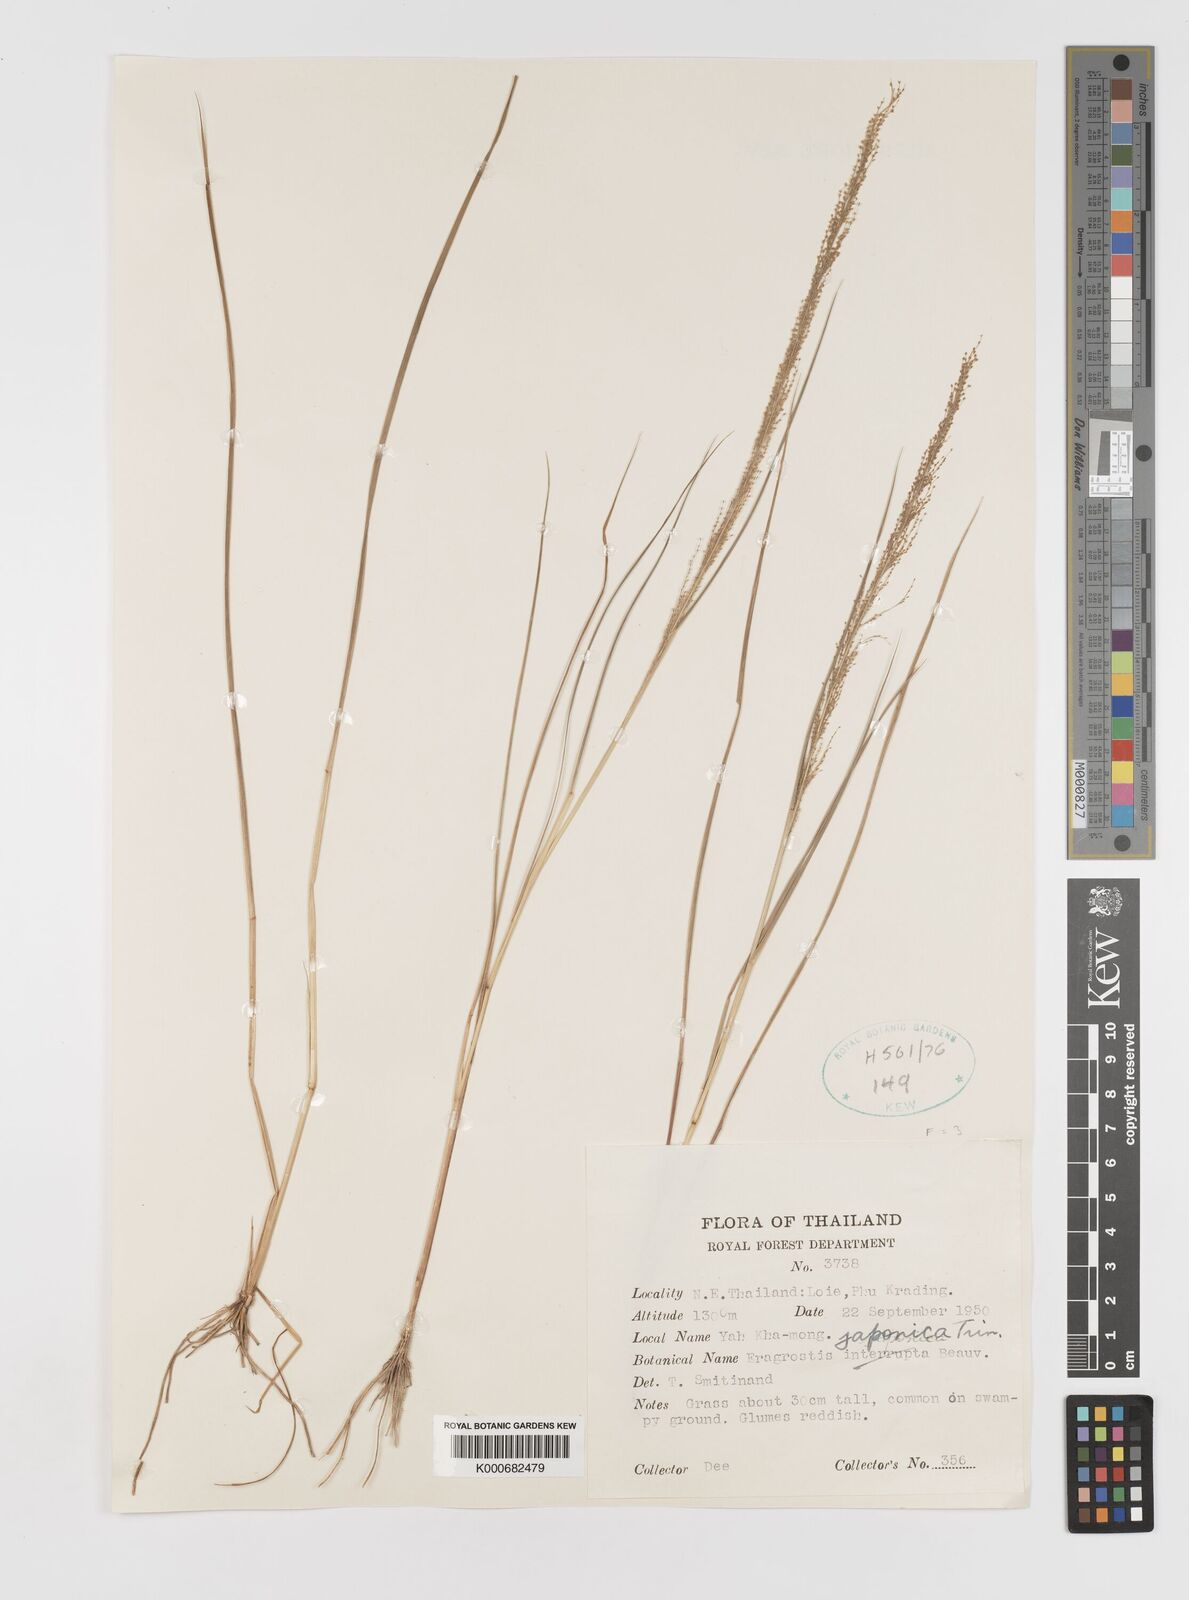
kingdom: Plantae
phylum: Tracheophyta
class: Liliopsida
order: Poales
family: Poaceae
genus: Eragrostis
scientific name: Eragrostis japonica
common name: Pond lovegrass
